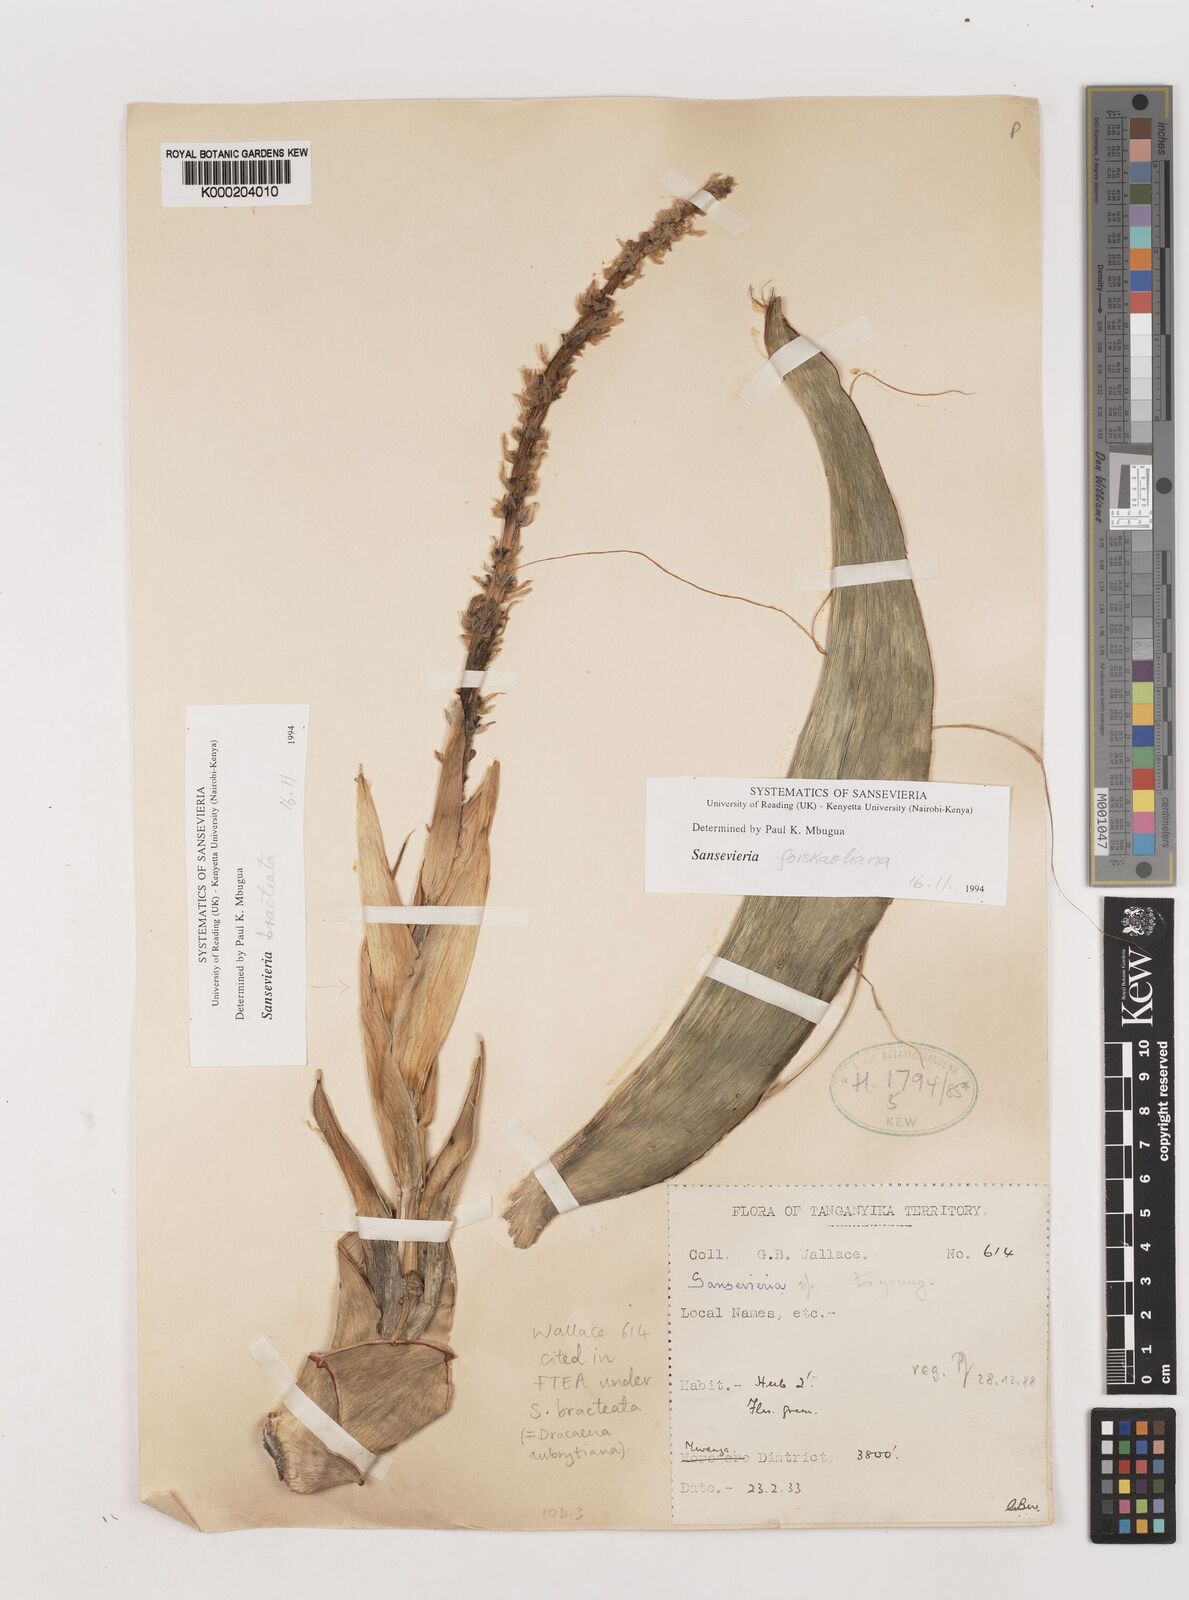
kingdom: Plantae
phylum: Tracheophyta
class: Liliopsida
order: Asparagales
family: Asparagaceae
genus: Dracaena
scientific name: Dracaena aubrytiana
